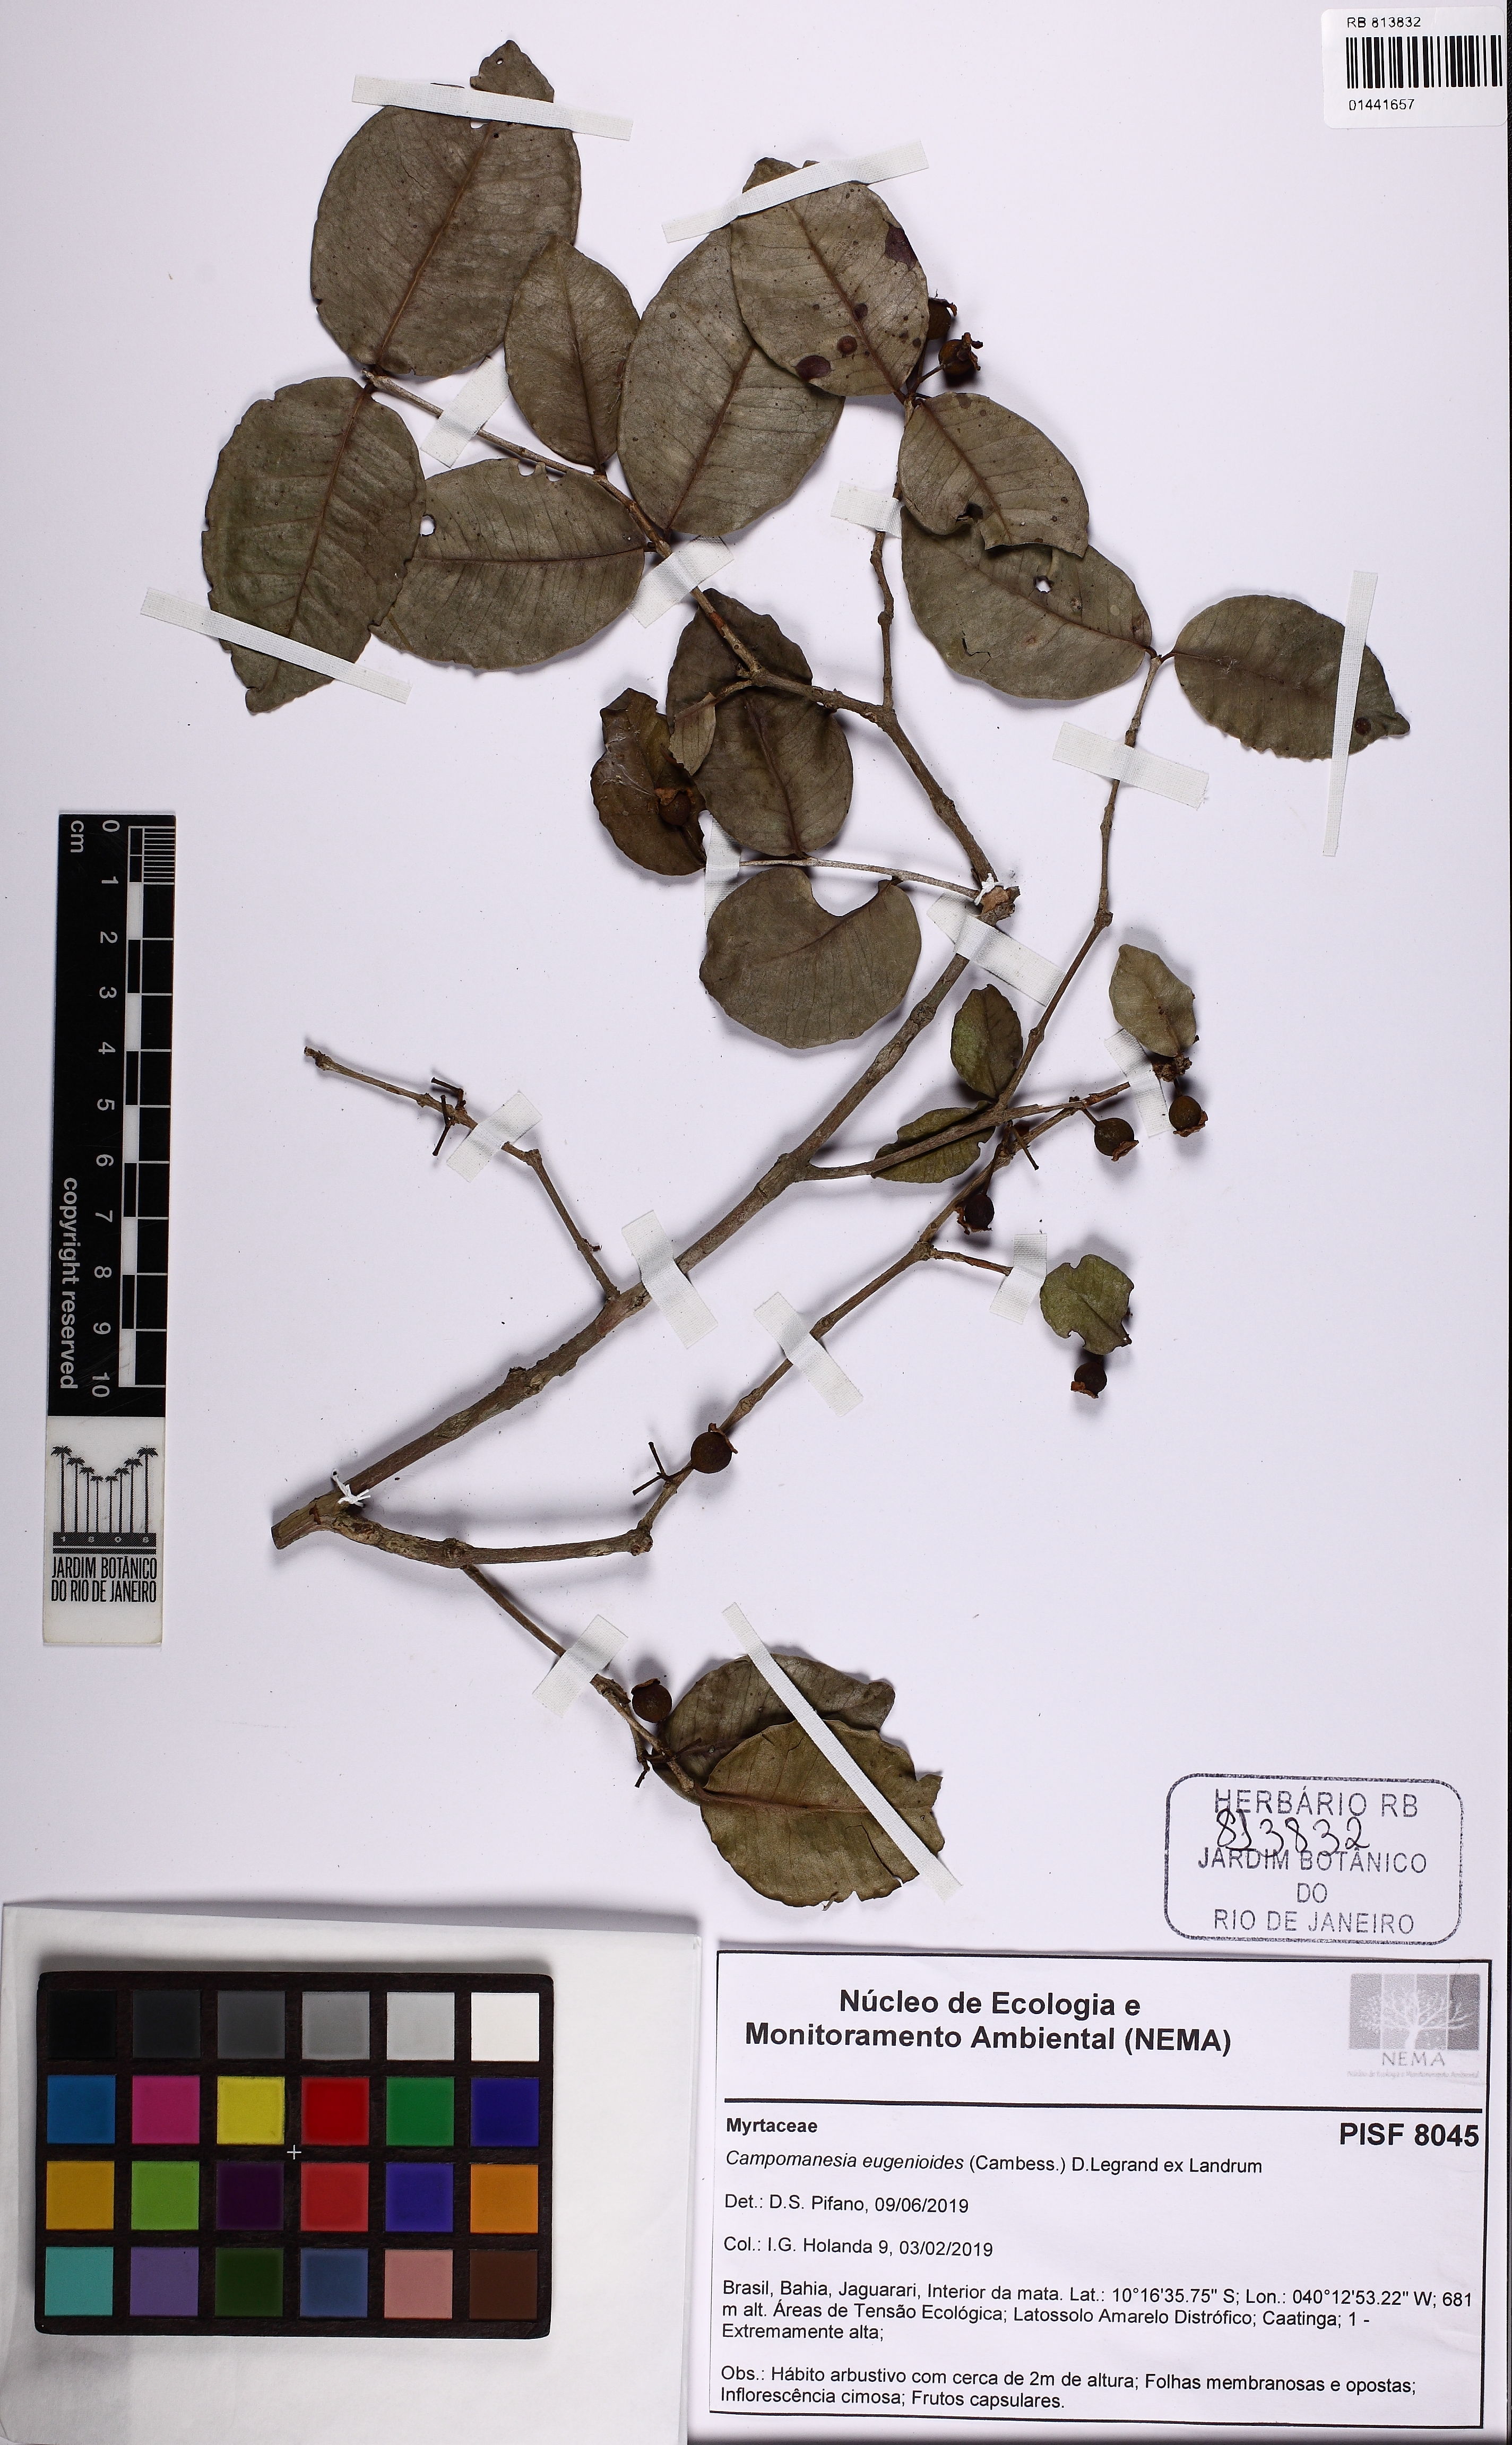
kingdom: Plantae
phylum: Tracheophyta
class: Magnoliopsida
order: Myrtales
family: Myrtaceae
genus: Campomanesia
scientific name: Campomanesia eugenioides
